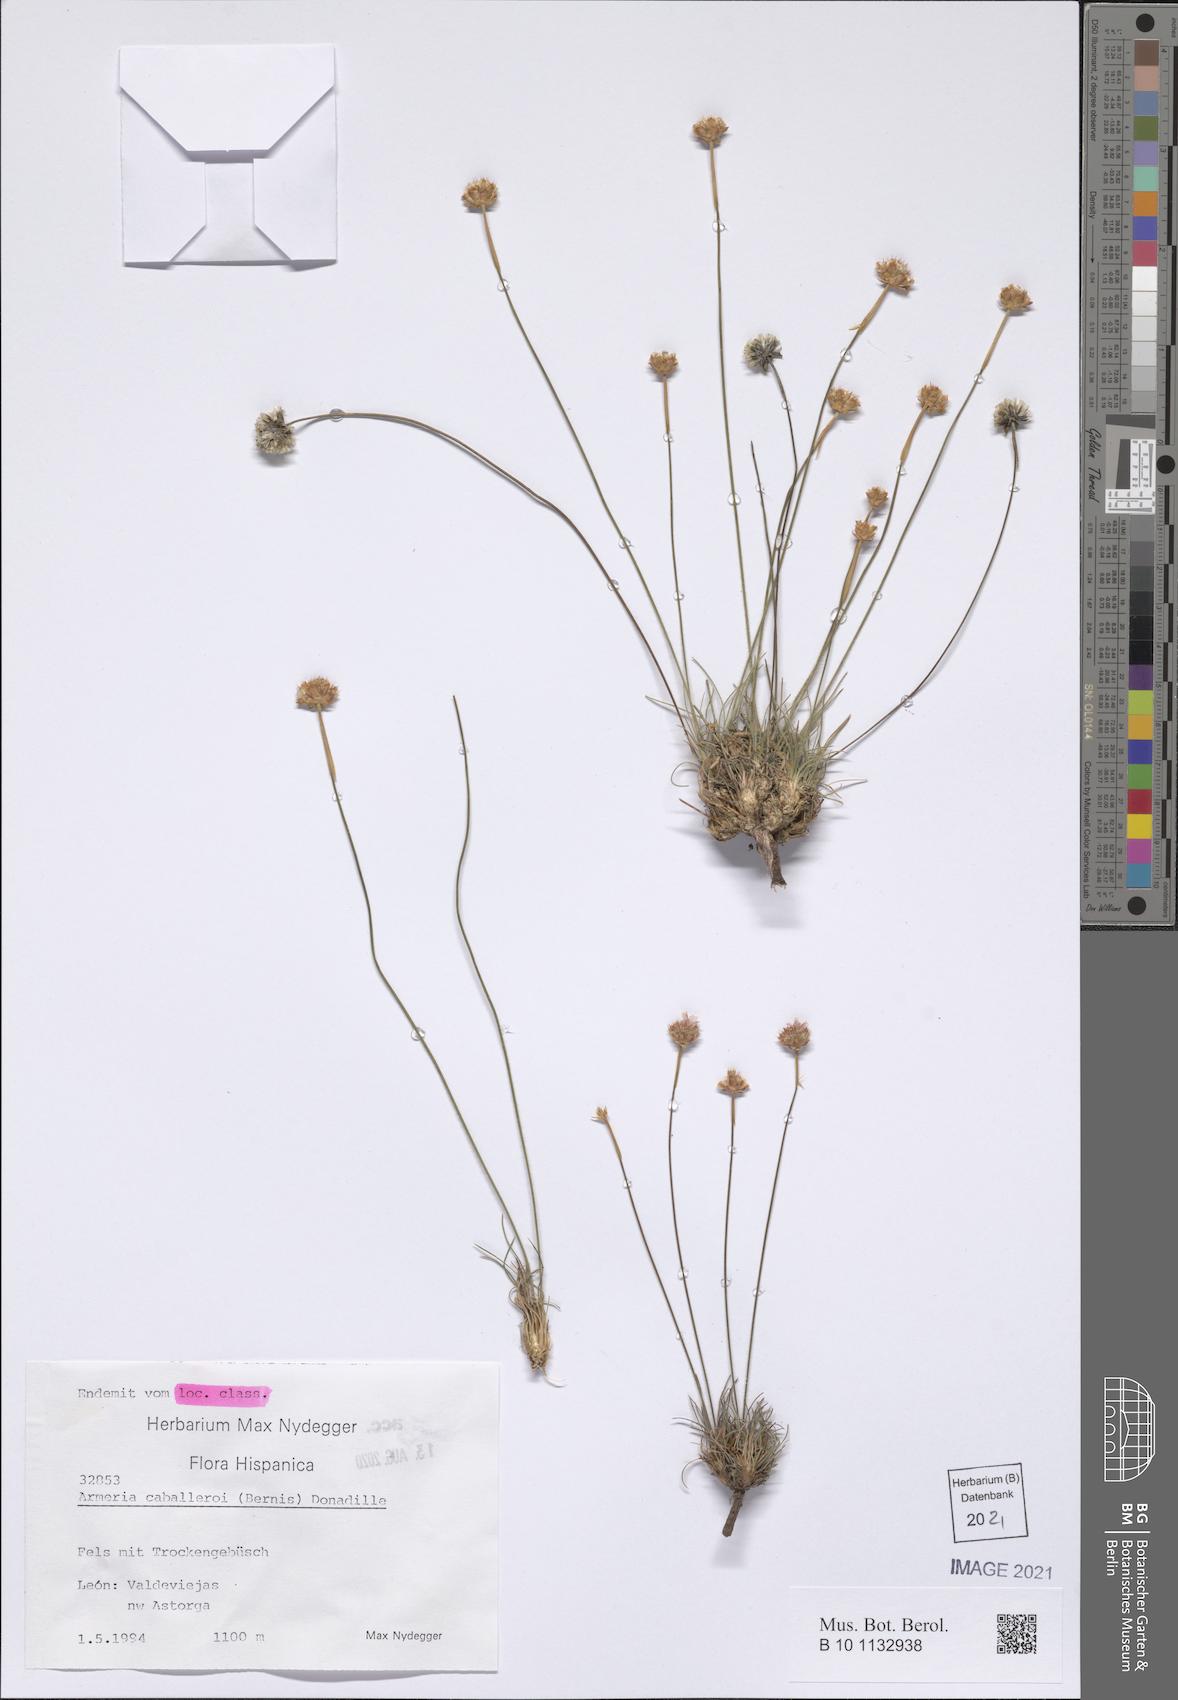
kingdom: Plantae
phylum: Tracheophyta
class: Magnoliopsida
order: Caryophyllales
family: Plumbaginaceae
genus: Armeria
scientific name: Armeria caballeroi
